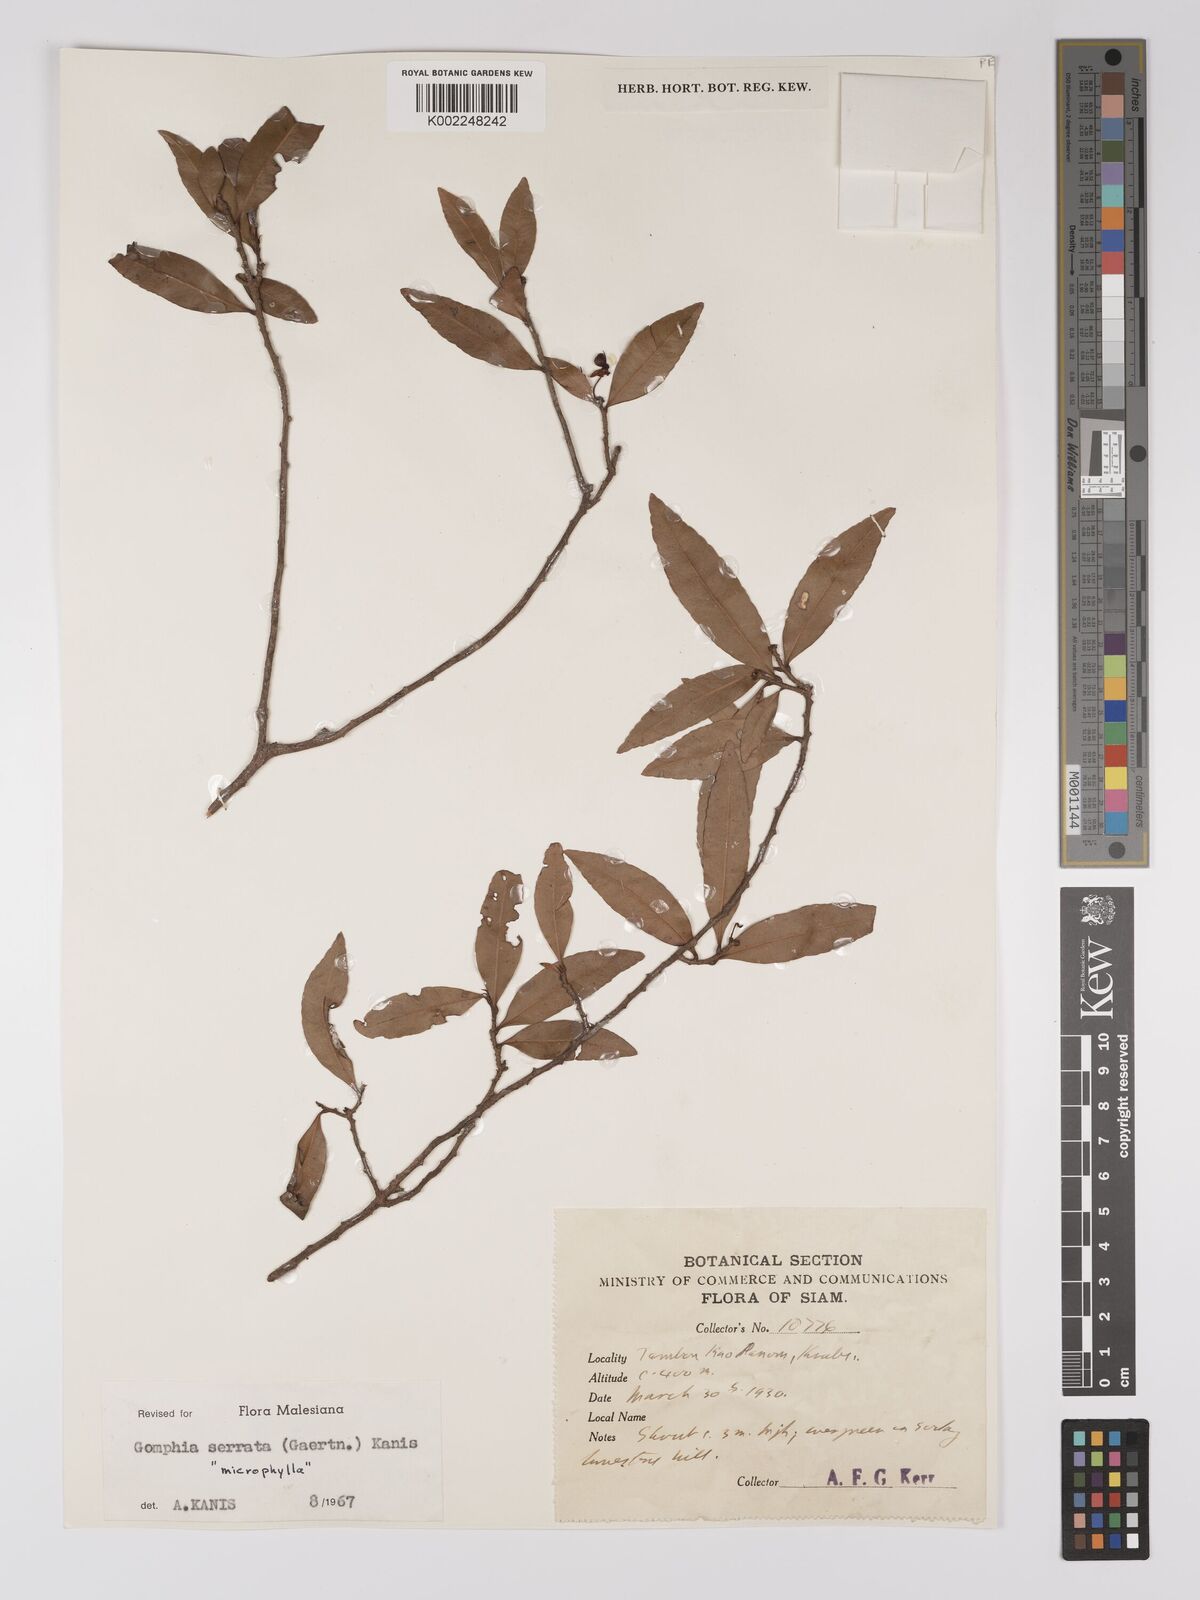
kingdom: Plantae
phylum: Tracheophyta
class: Magnoliopsida
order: Malpighiales
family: Ochnaceae
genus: Gomphia
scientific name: Gomphia serrata
